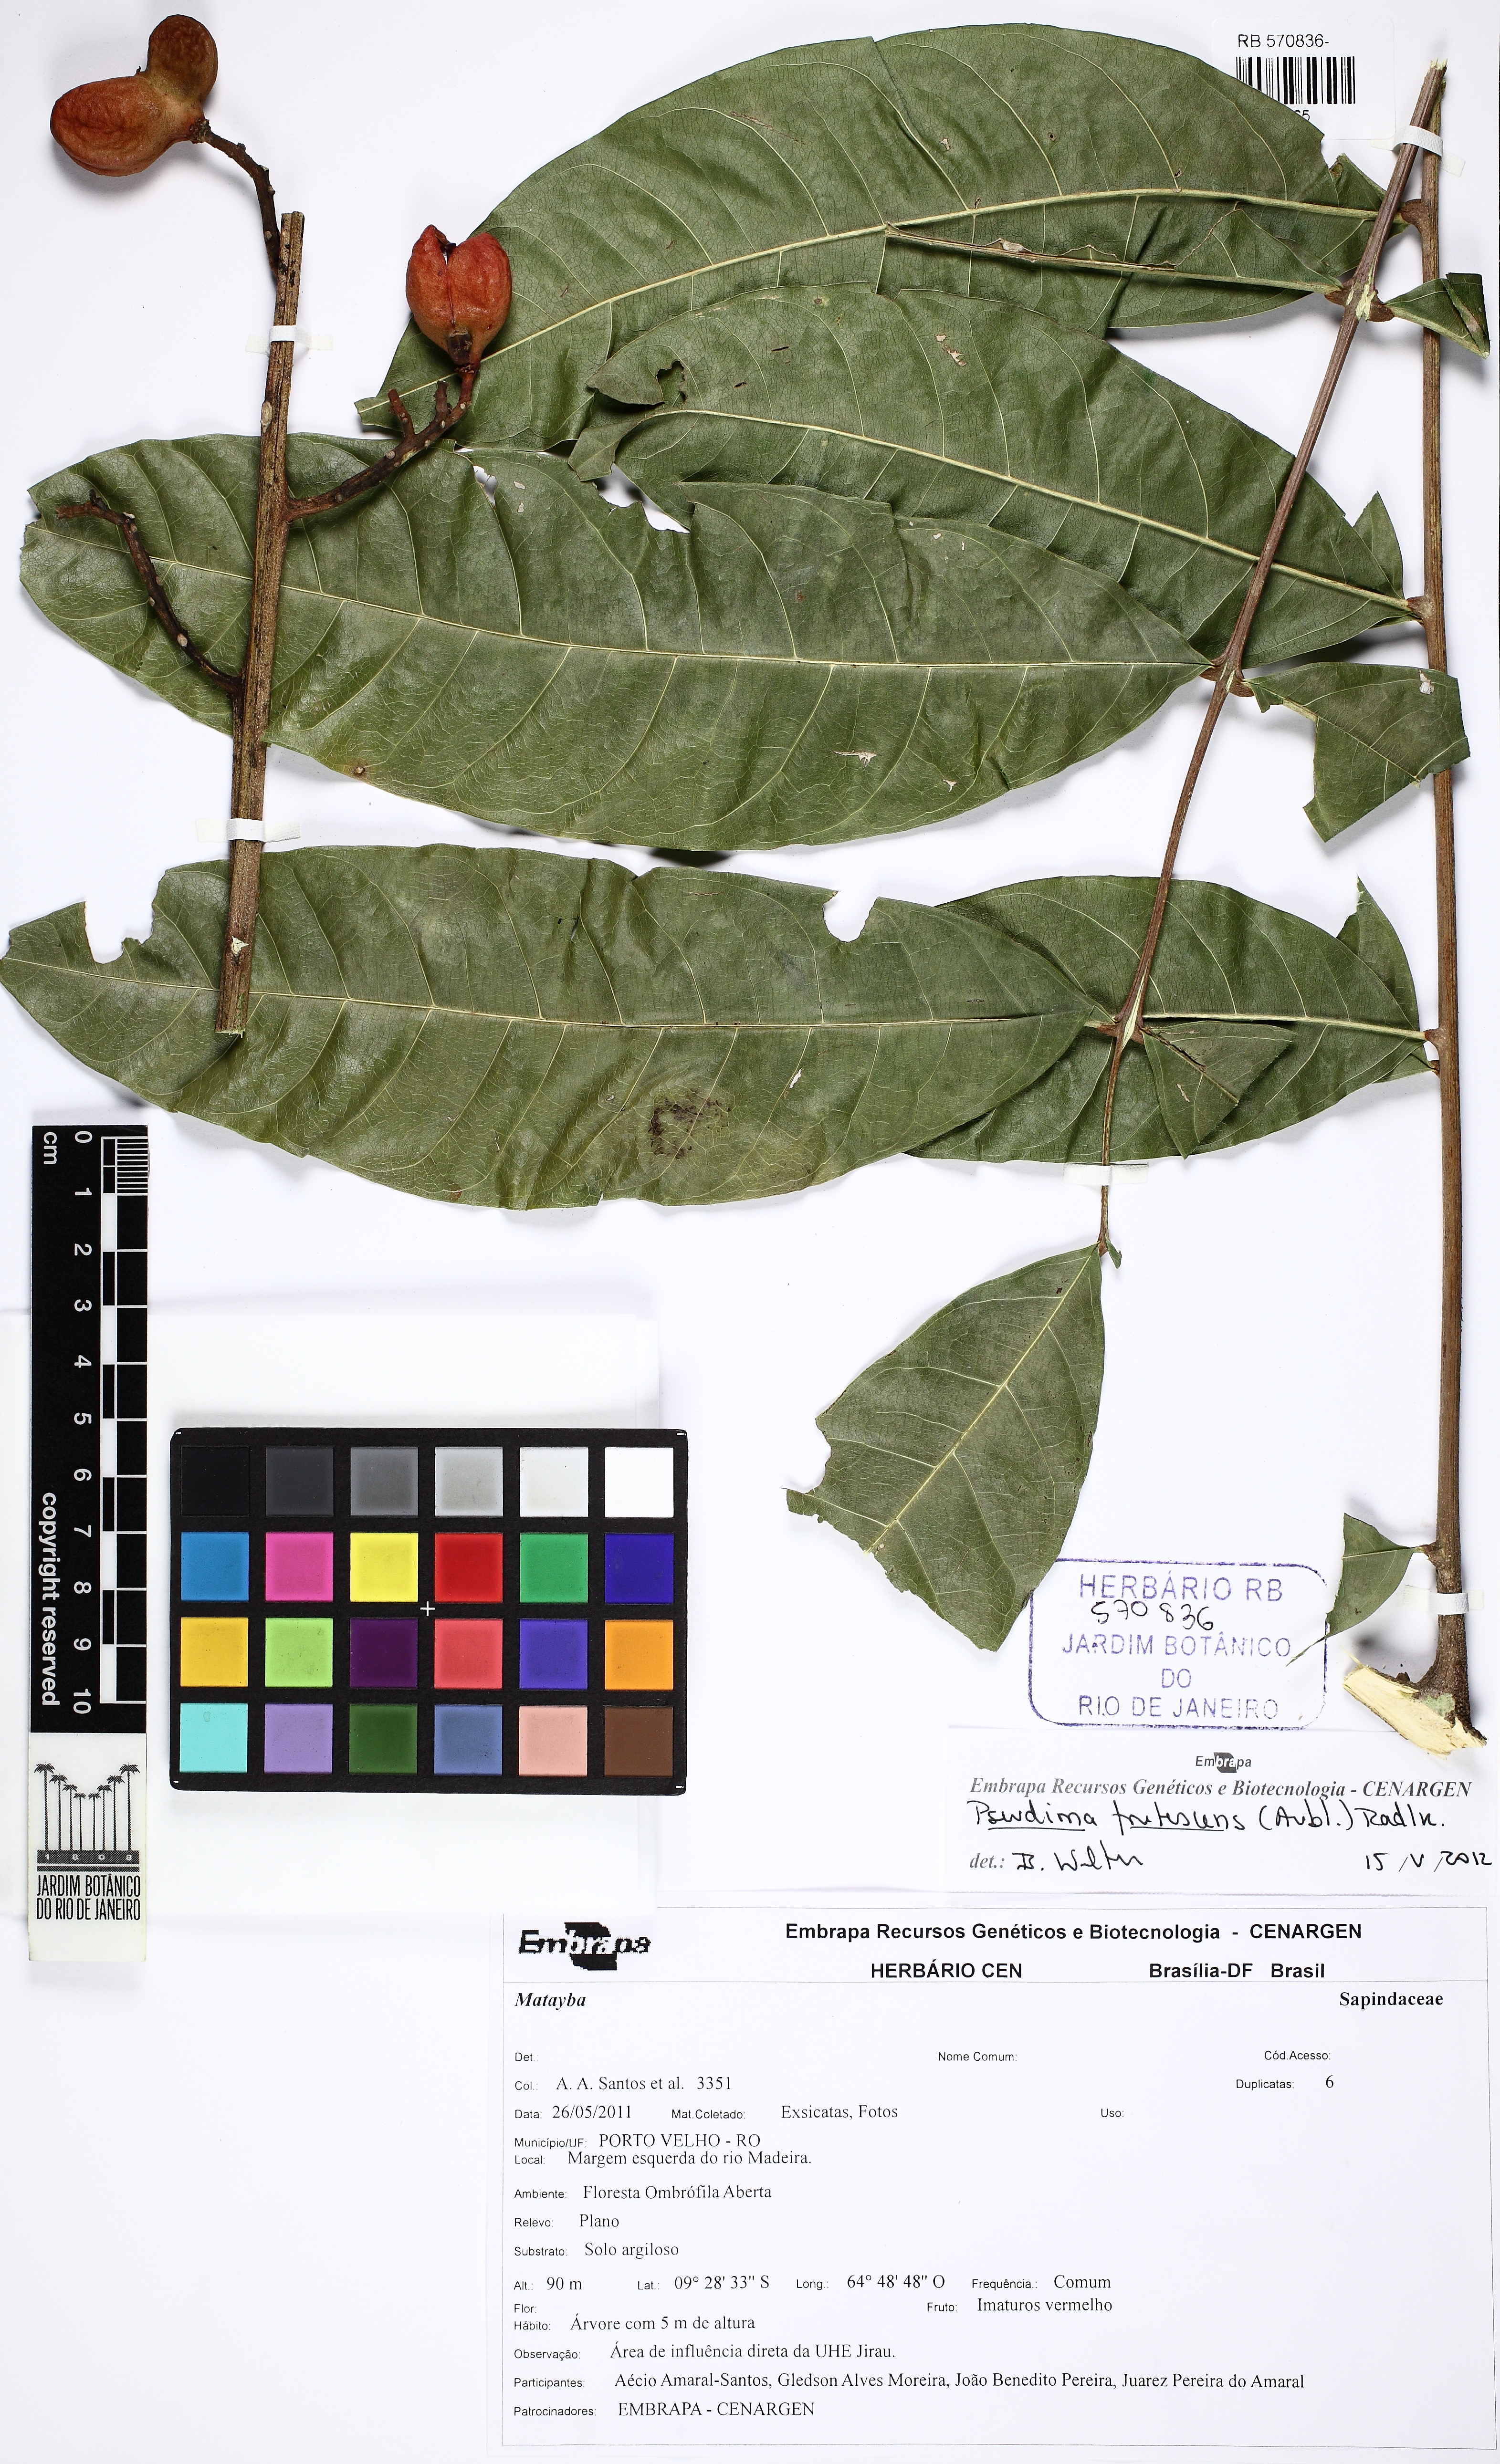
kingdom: Plantae
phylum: Tracheophyta
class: Magnoliopsida
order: Sapindales
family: Sapindaceae
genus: Pseudima
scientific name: Pseudima frutescens
